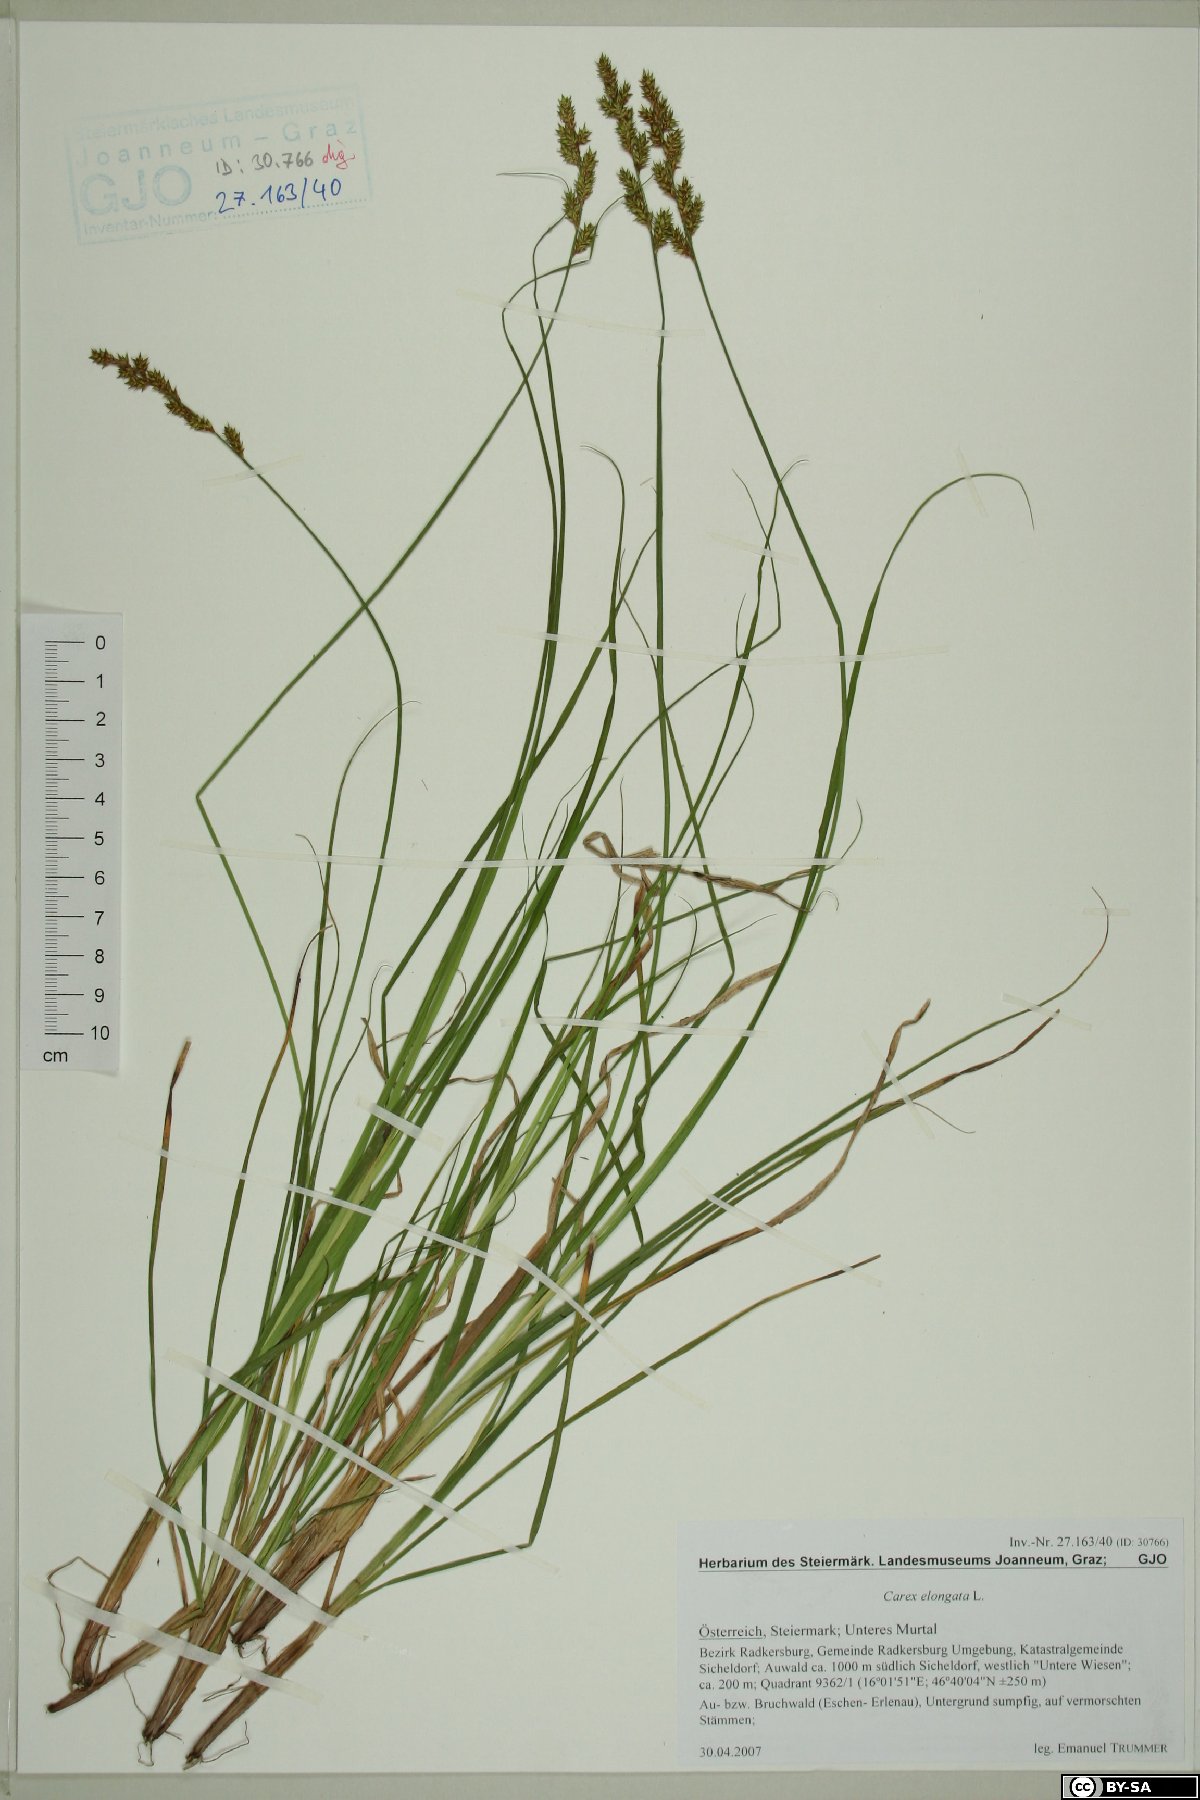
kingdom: Plantae
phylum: Tracheophyta
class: Liliopsida
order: Poales
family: Cyperaceae
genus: Carex
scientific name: Carex elongata
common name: Elongated sedge
